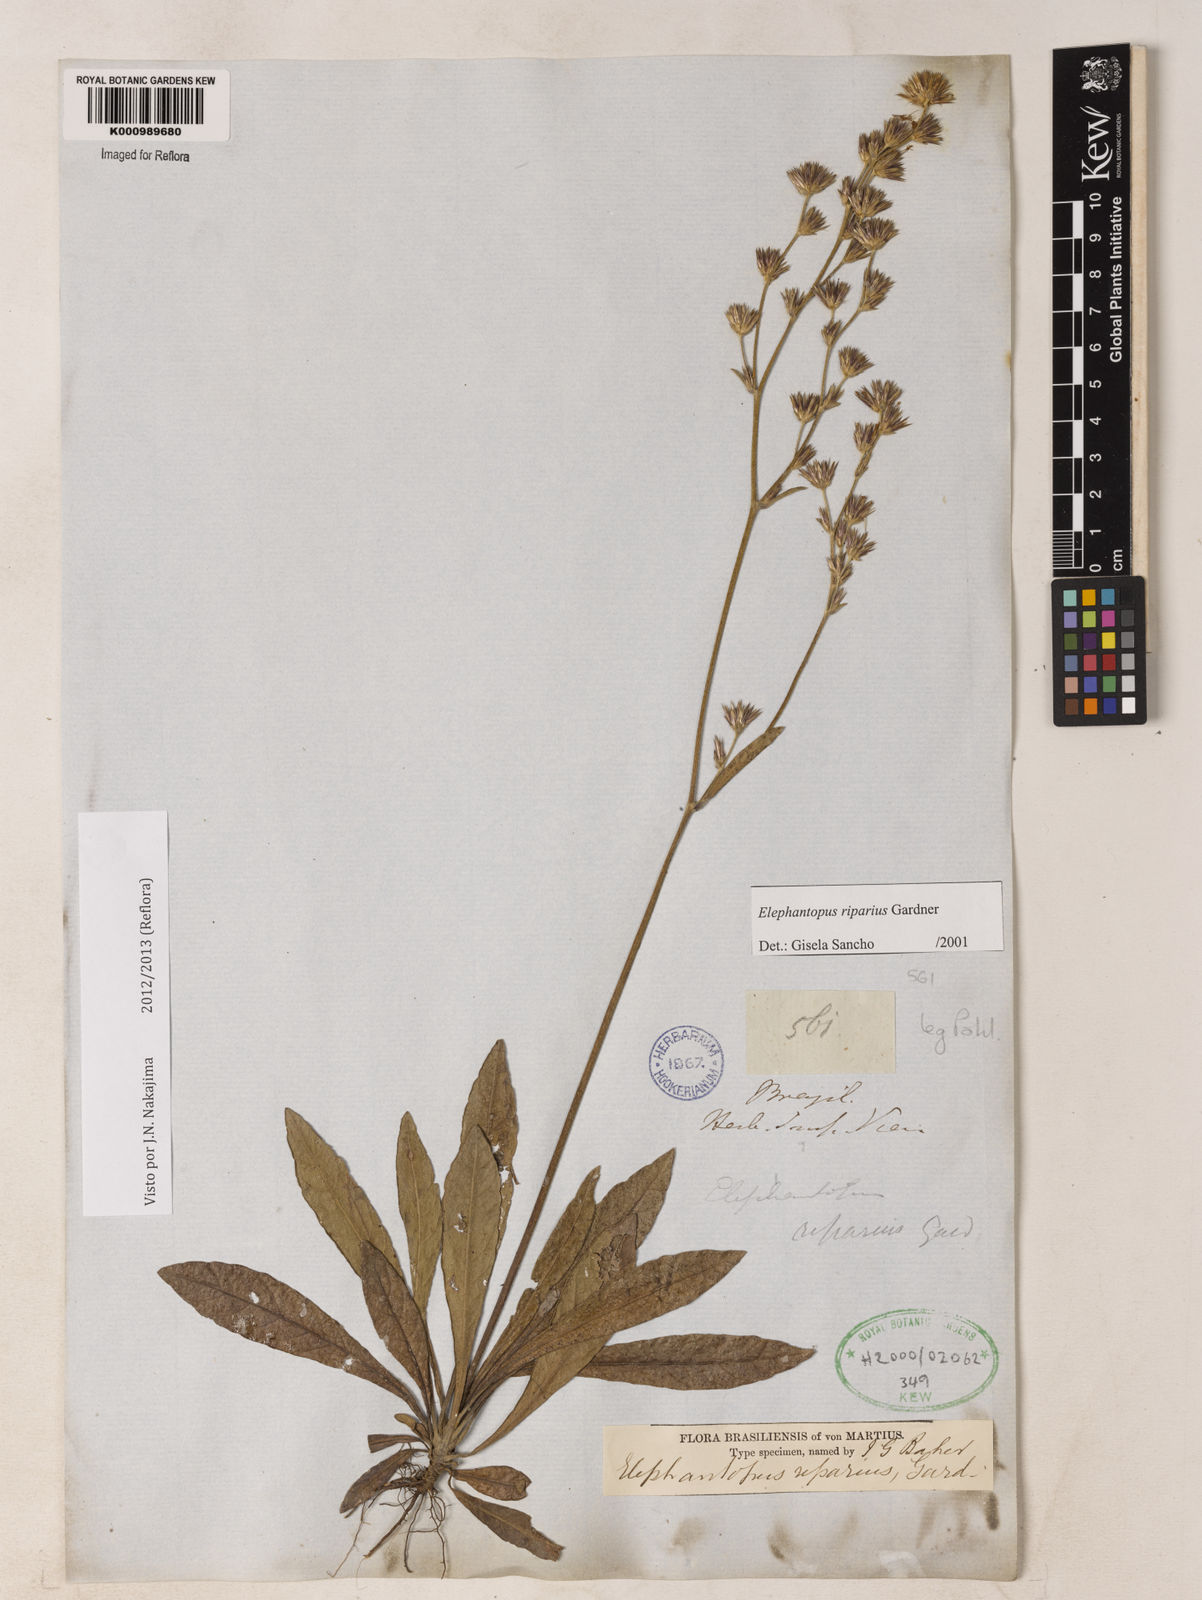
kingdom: Plantae
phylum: Tracheophyta
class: Magnoliopsida
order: Asterales
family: Asteraceae
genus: Elephantopus
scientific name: Elephantopus riparius
